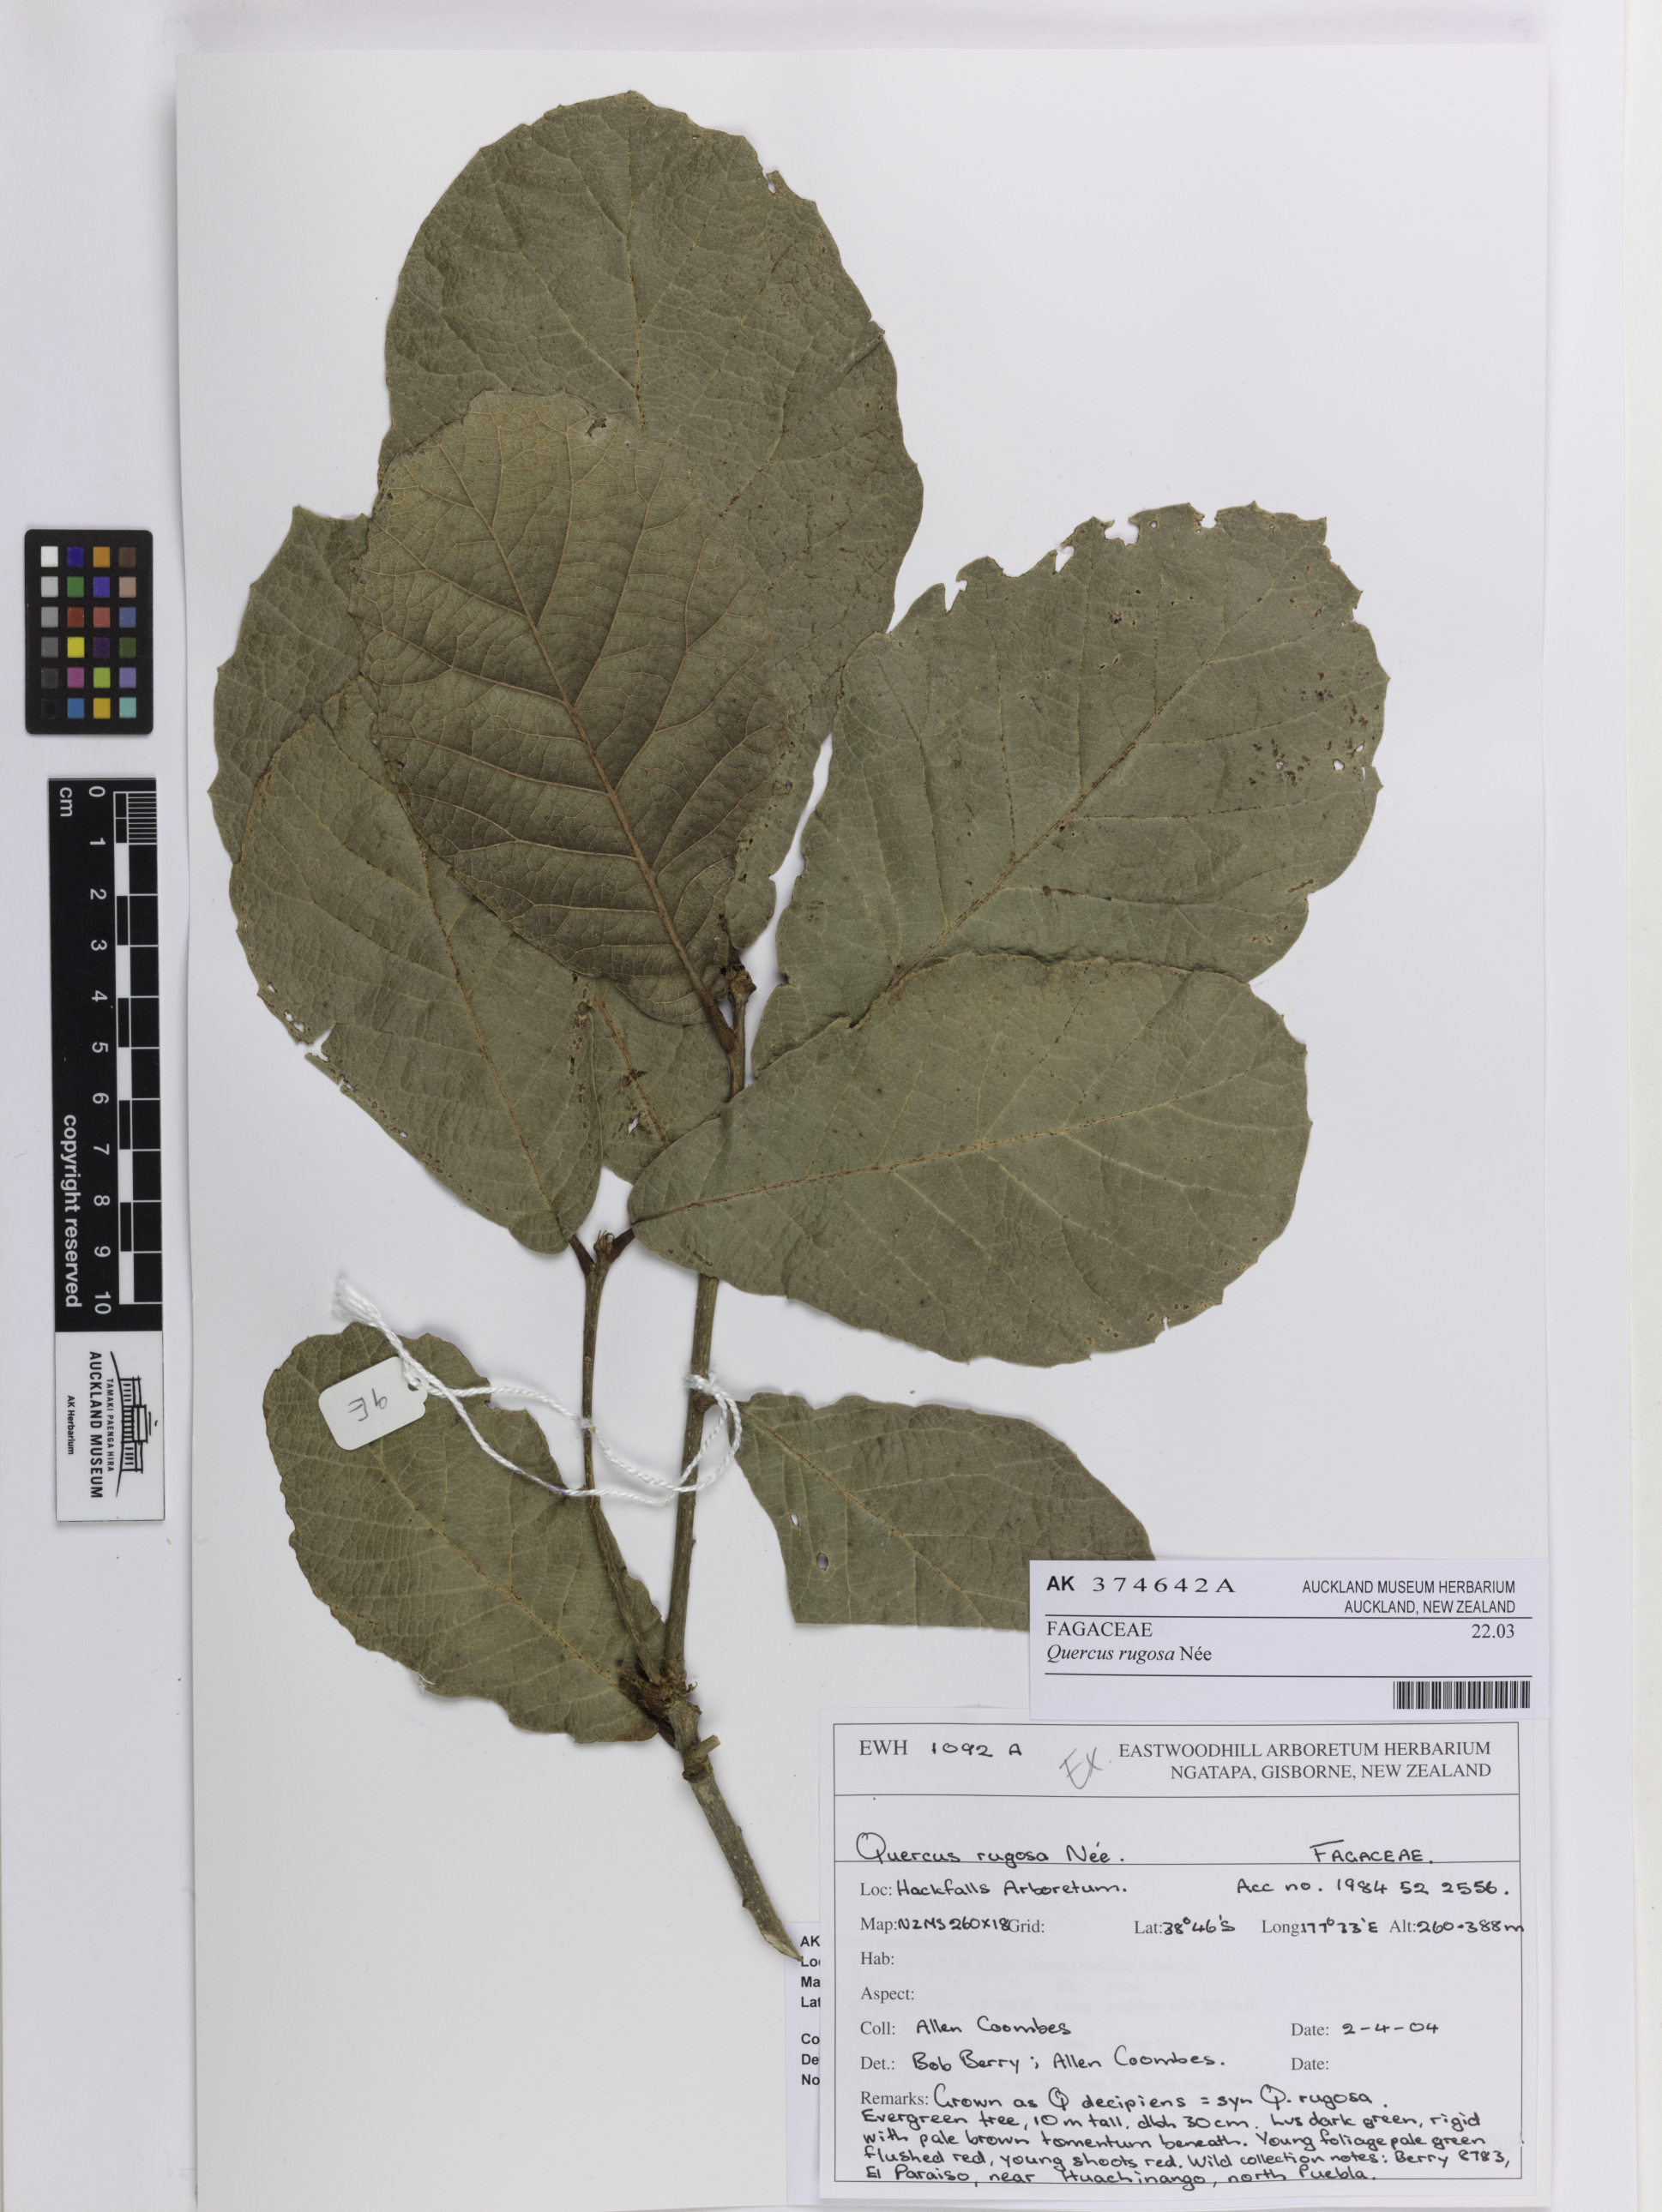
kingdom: Plantae
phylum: Tracheophyta
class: Magnoliopsida
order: Fagales
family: Fagaceae
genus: Quercus
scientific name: Quercus rugosa
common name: Netleaf oak
